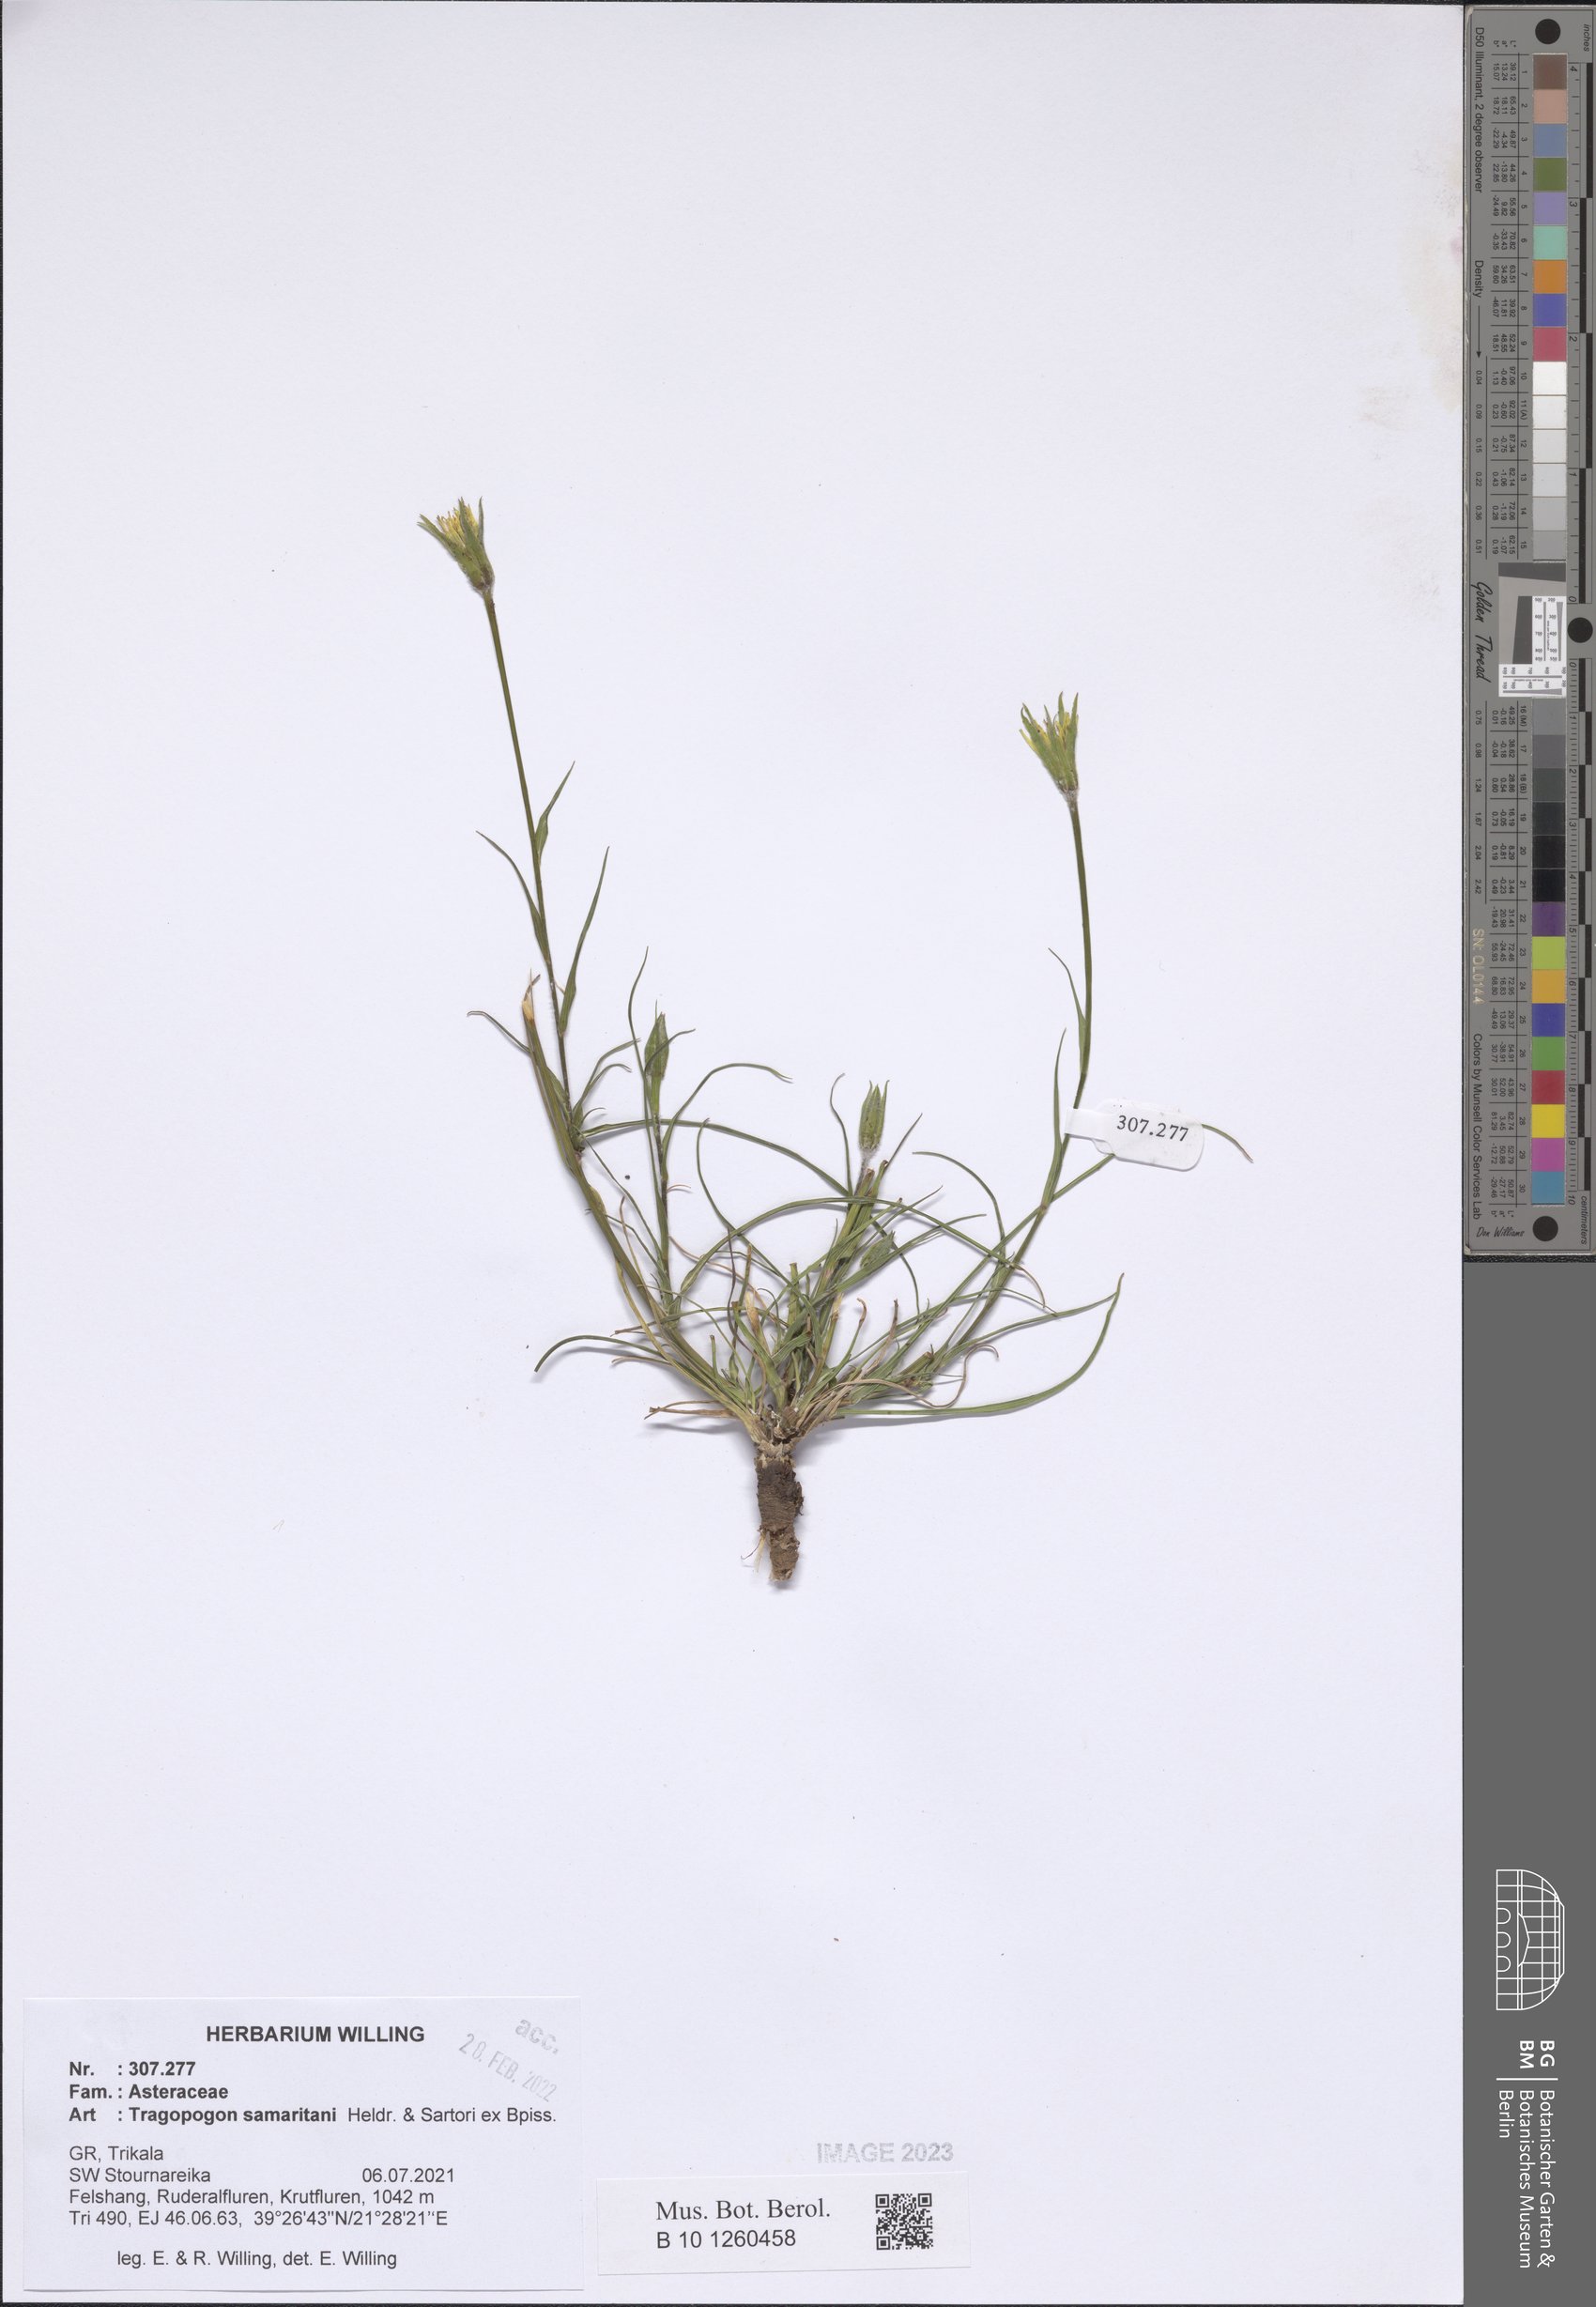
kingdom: Plantae
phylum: Tracheophyta
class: Magnoliopsida
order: Asterales
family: Asteraceae
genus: Tragopogon
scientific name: Tragopogon samaritani
